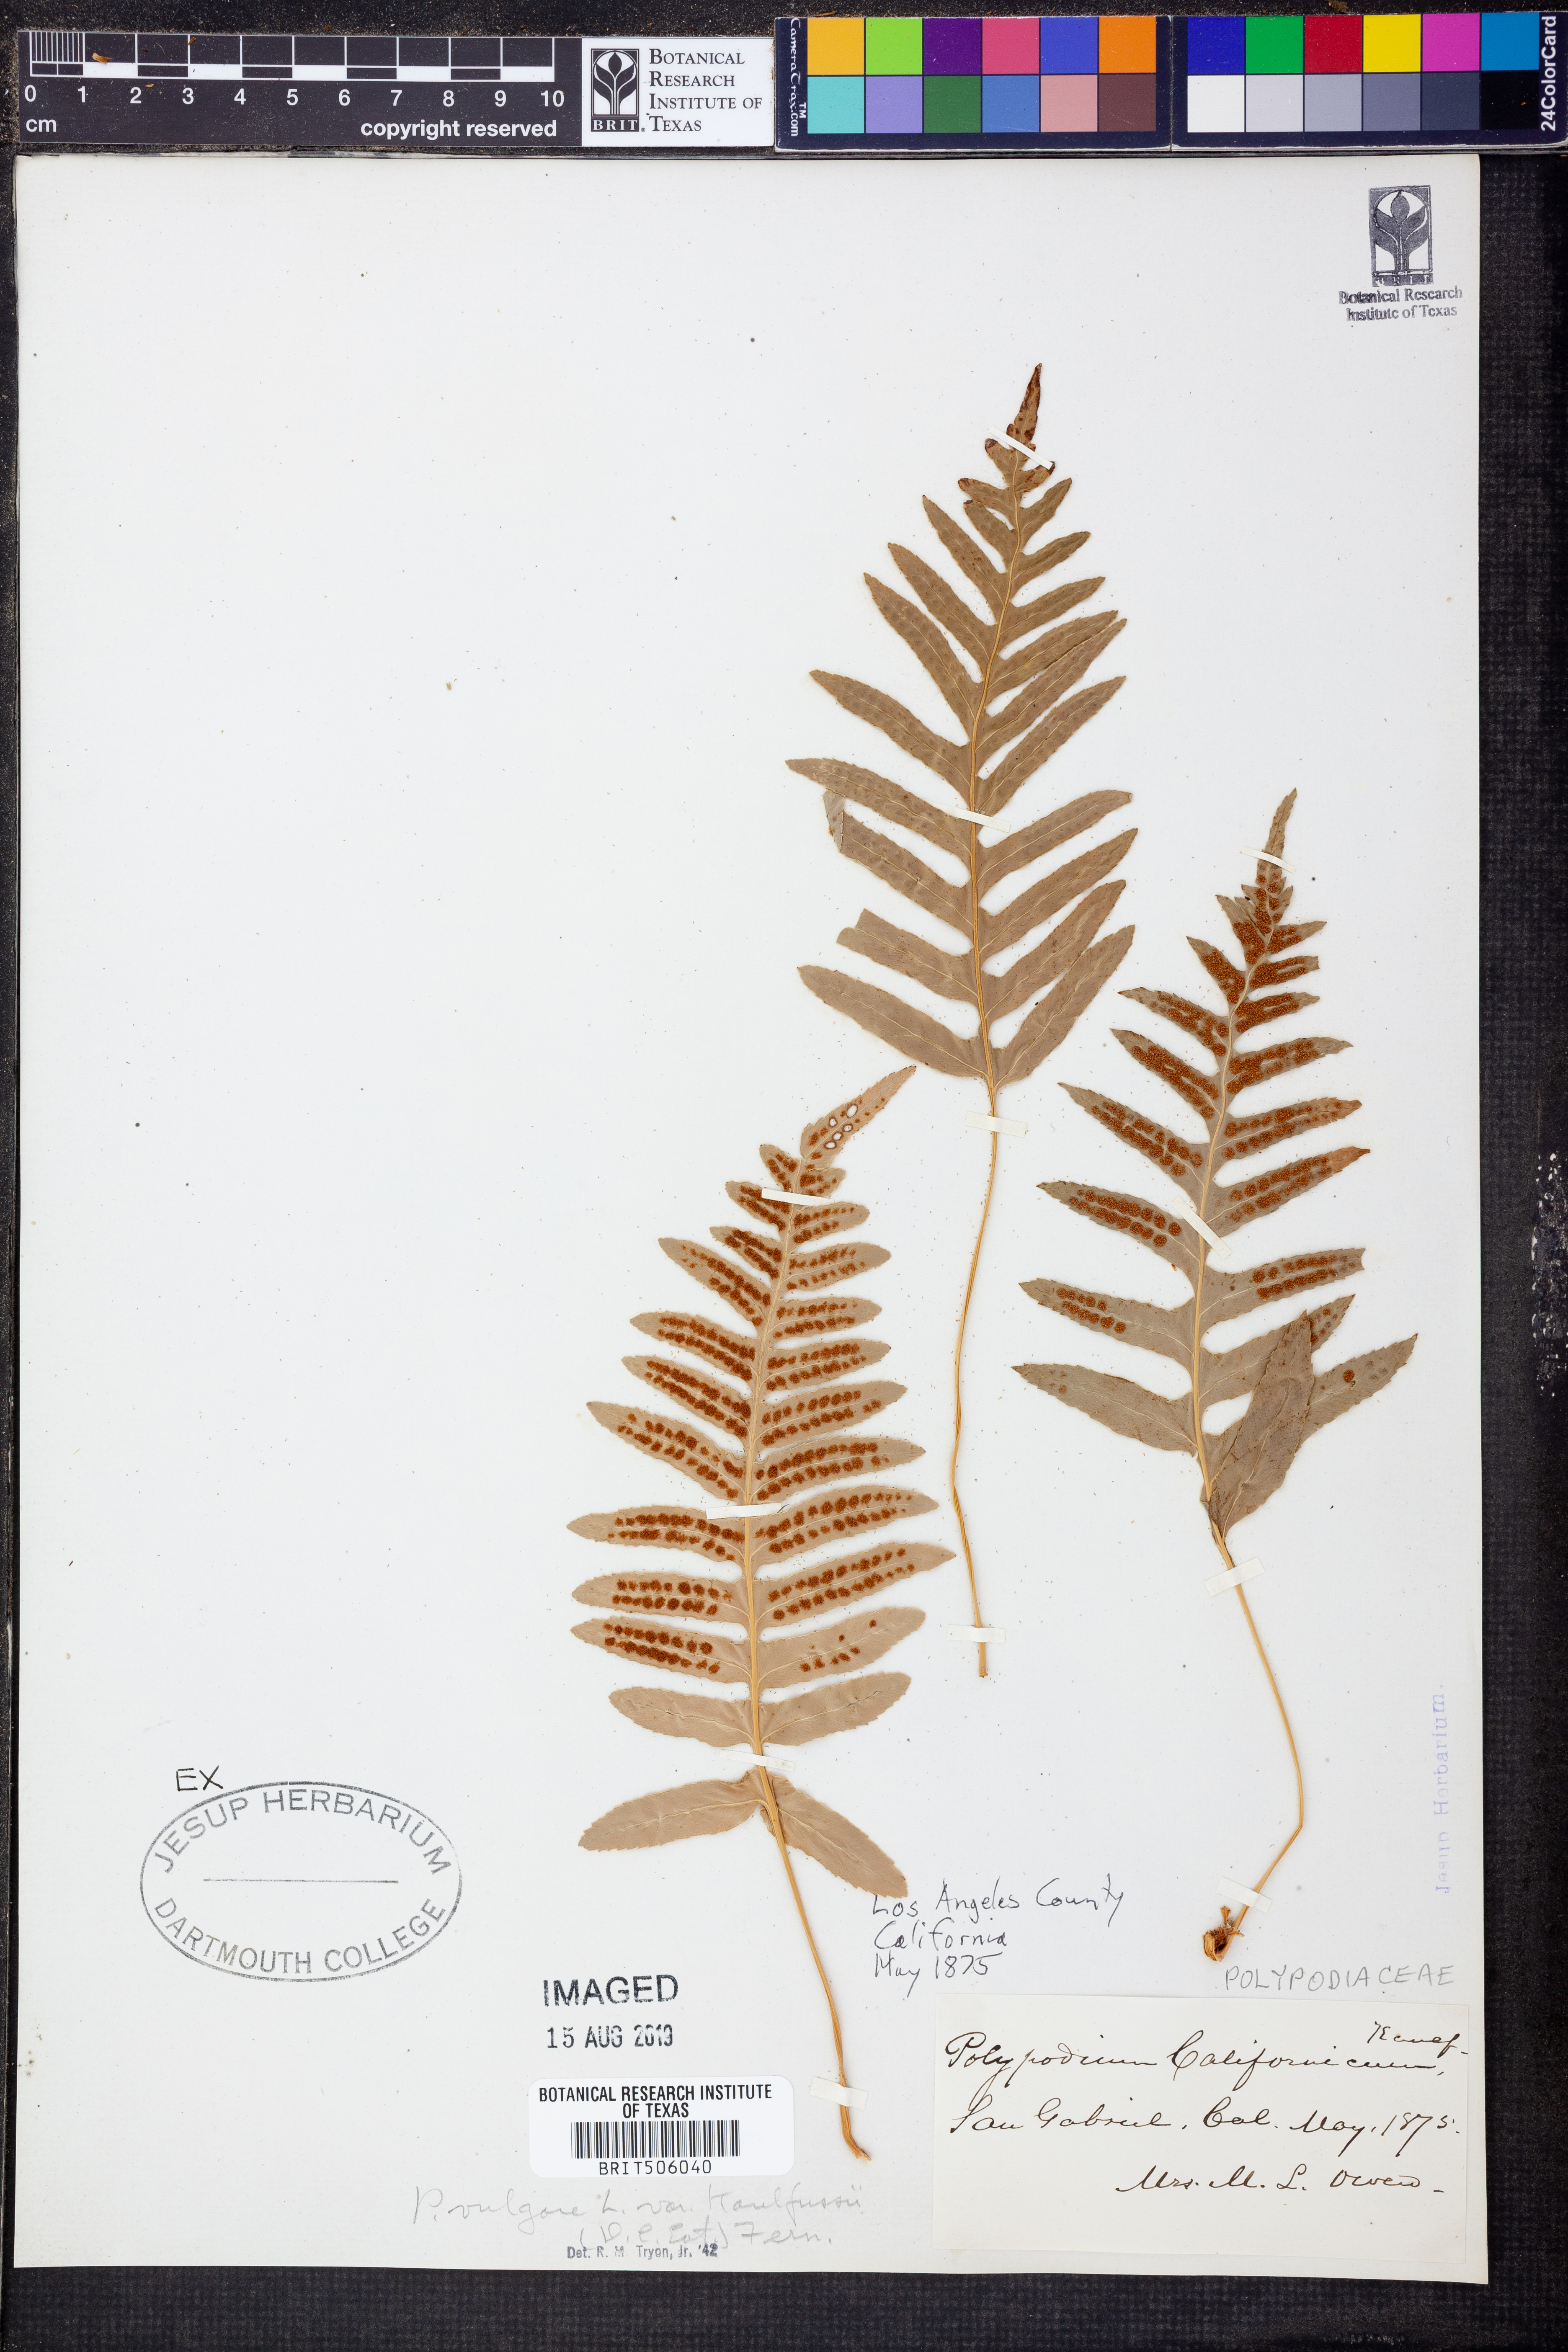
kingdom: Plantae
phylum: Tracheophyta
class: Polypodiopsida
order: Polypodiales
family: Polypodiaceae
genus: Polypodium
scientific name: Polypodium californicum
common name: California polypody
